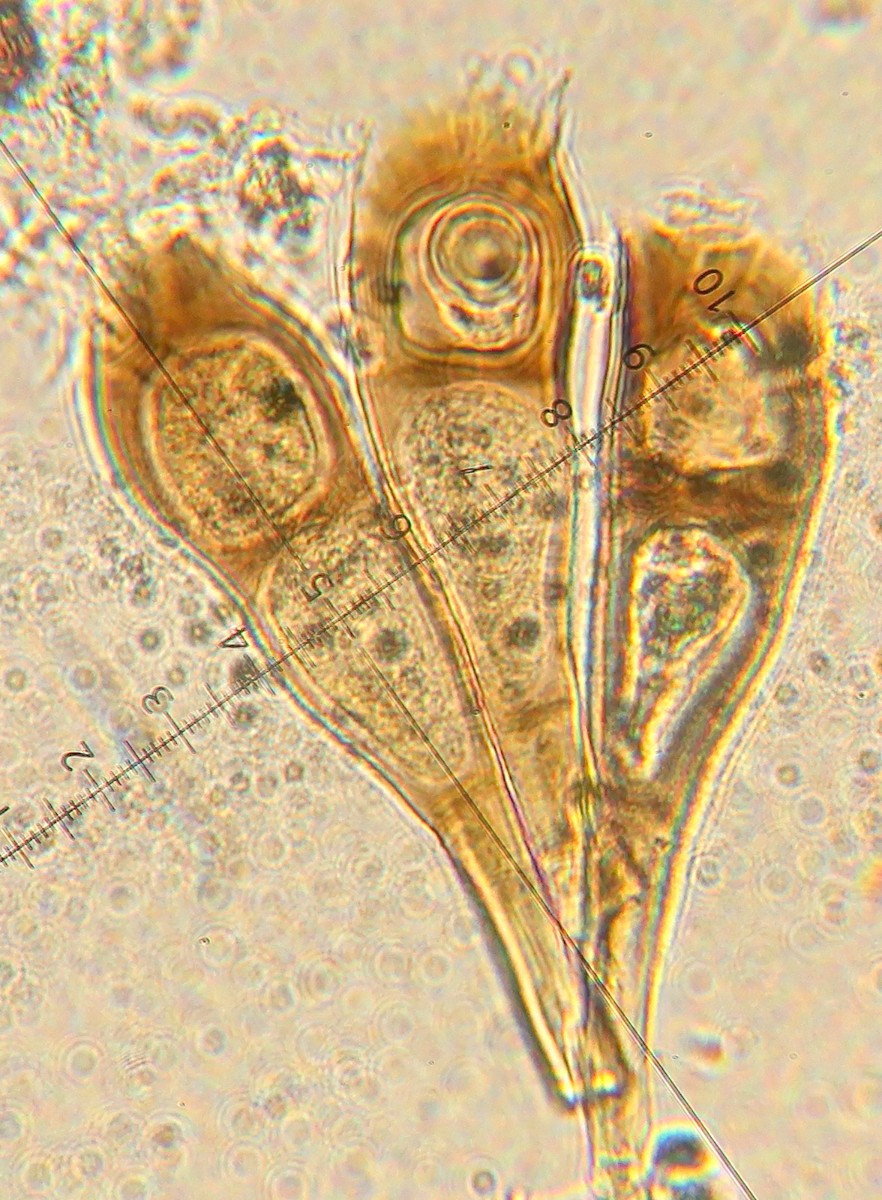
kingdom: Fungi
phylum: Basidiomycota
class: Pucciniomycetes
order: Pucciniales
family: Pucciniaceae
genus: Puccinia
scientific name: Puccinia magnusiana
